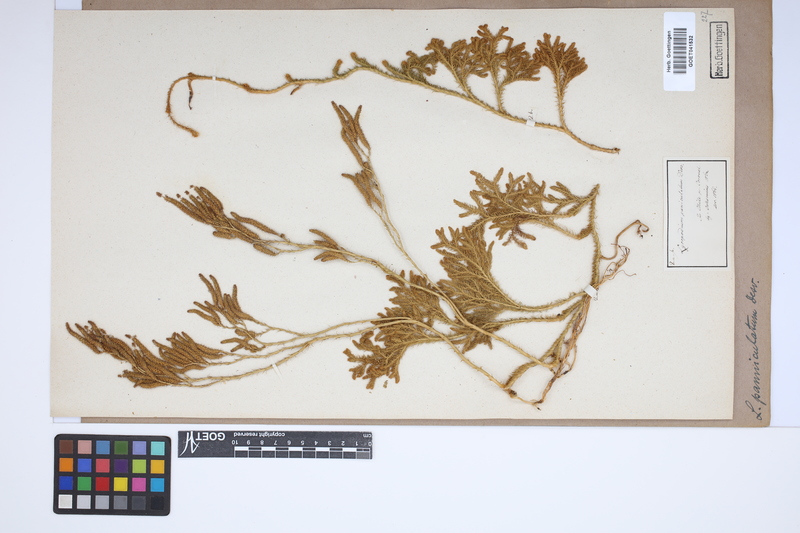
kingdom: Plantae
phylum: Tracheophyta
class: Lycopodiopsida
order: Lycopodiales
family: Lycopodiaceae
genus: Austrolycopodium
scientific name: Austrolycopodium paniculatum
